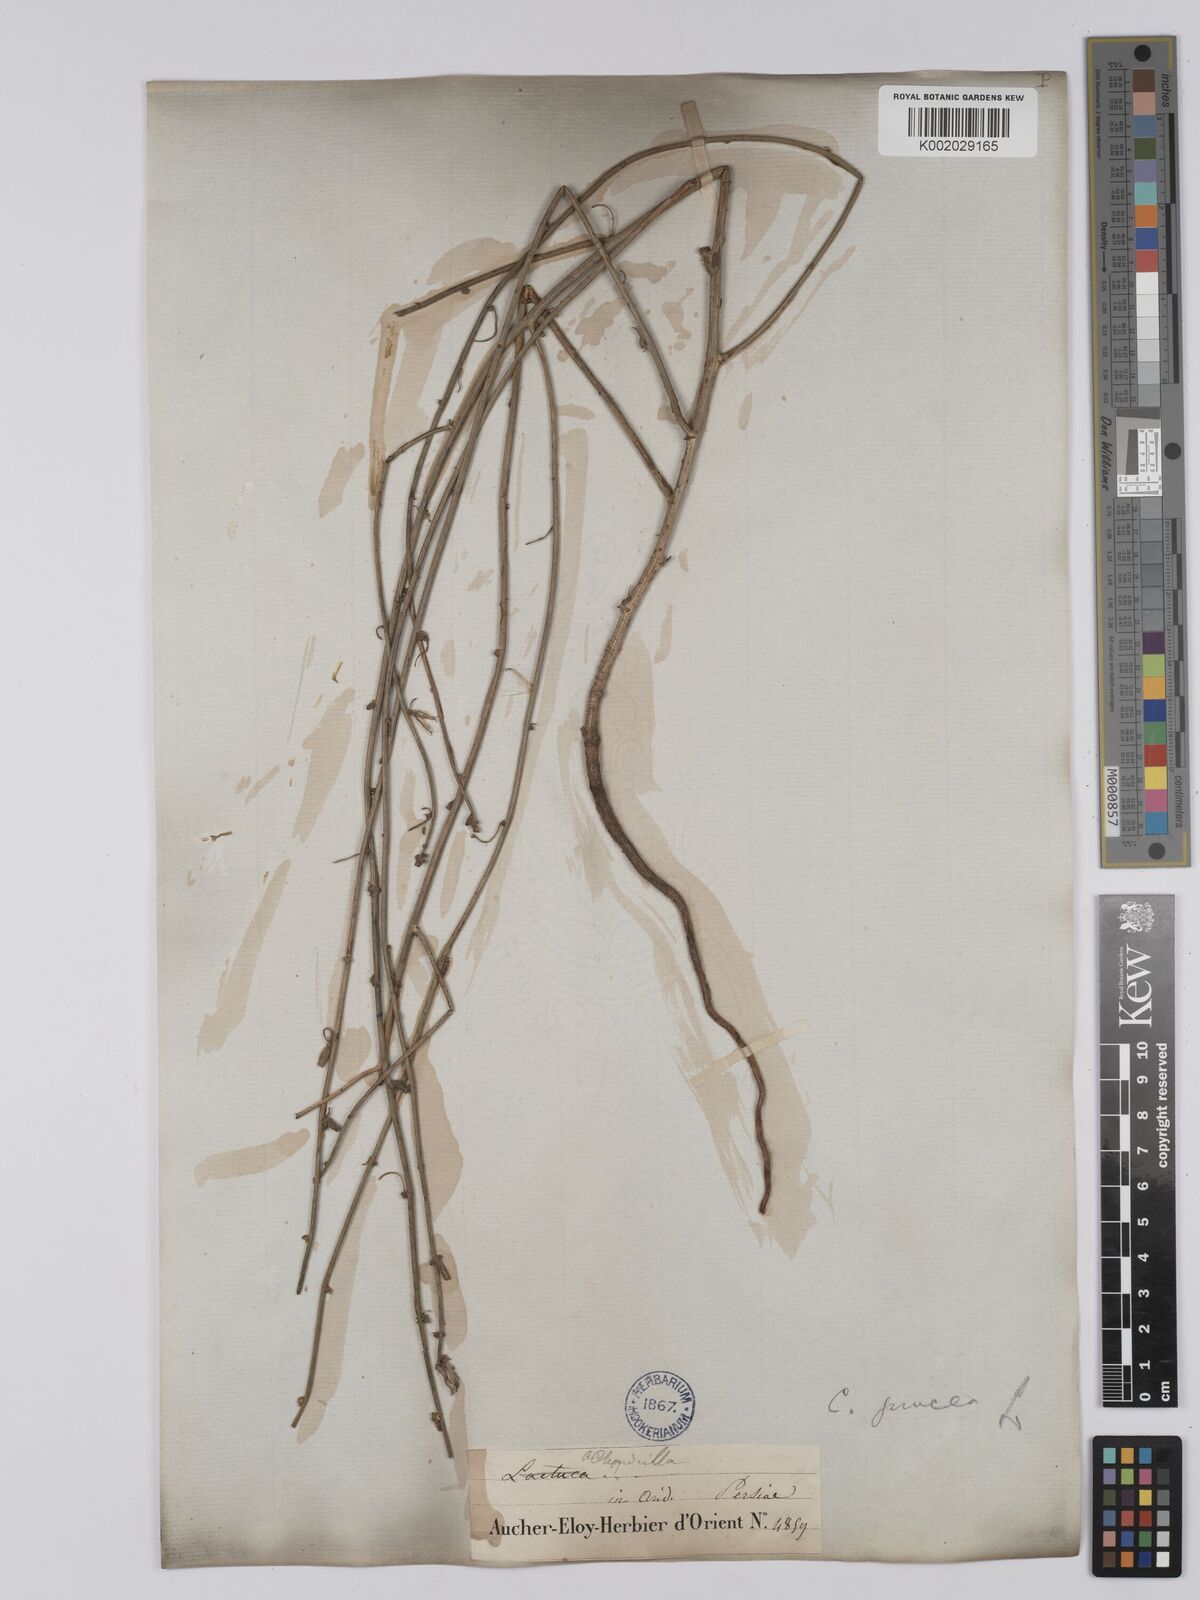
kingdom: Plantae
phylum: Tracheophyta
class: Magnoliopsida
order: Asterales
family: Asteraceae
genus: Chondrilla
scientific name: Chondrilla juncea
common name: Skeleton weed
